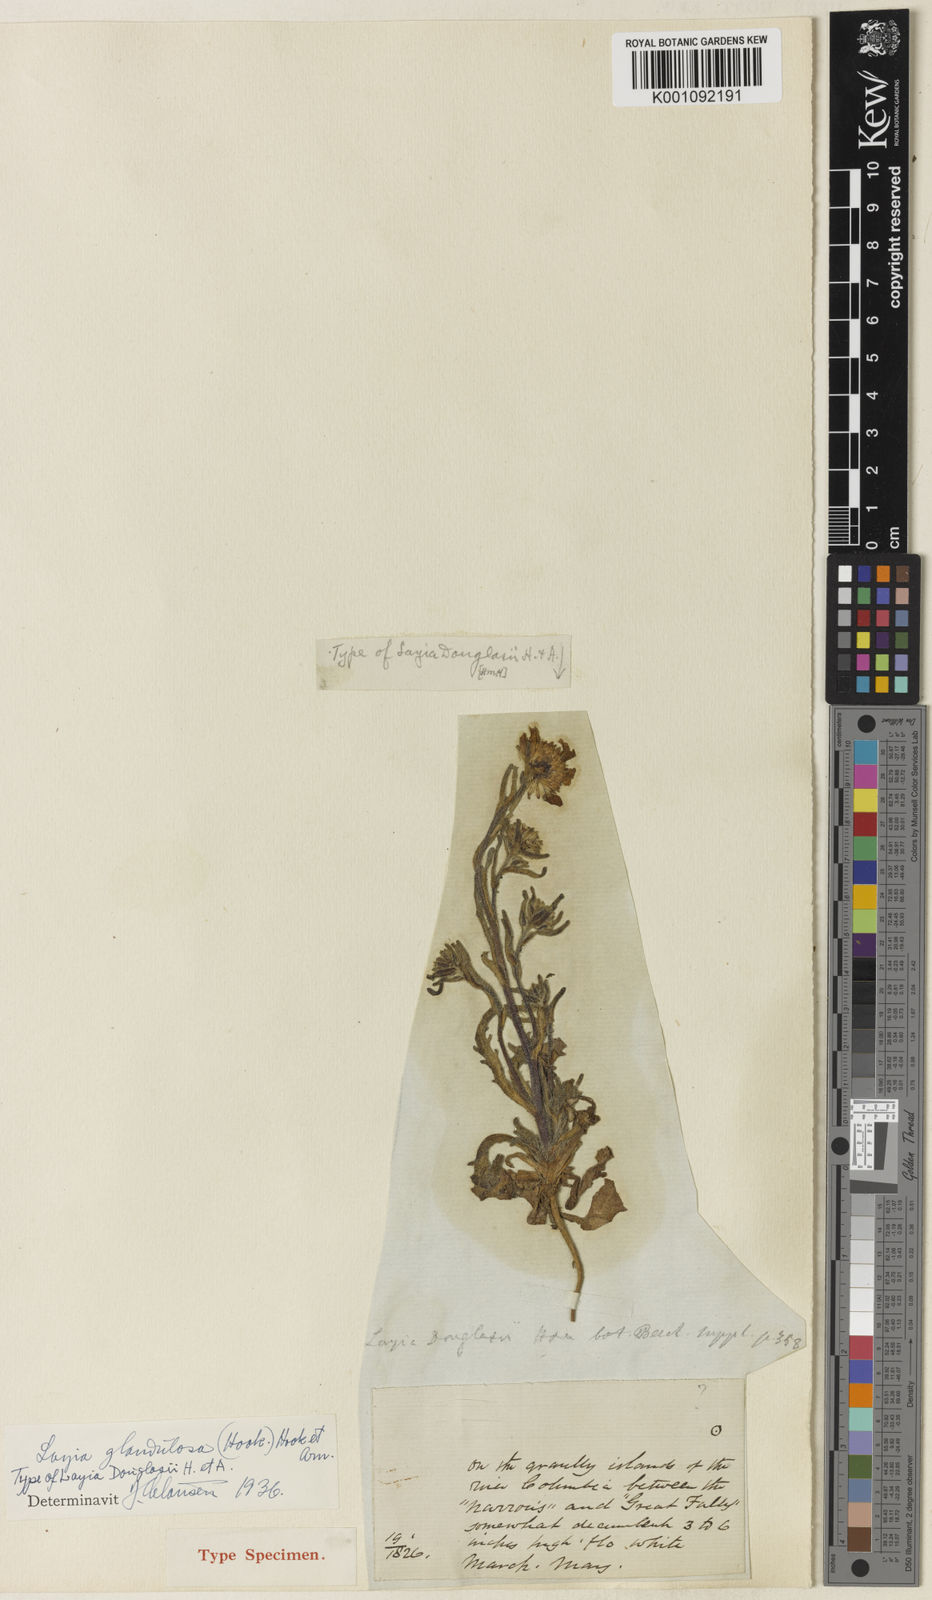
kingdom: Plantae
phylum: Tracheophyta
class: Magnoliopsida
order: Asterales
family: Asteraceae
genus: Layia
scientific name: Layia glandulosa
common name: White layia
